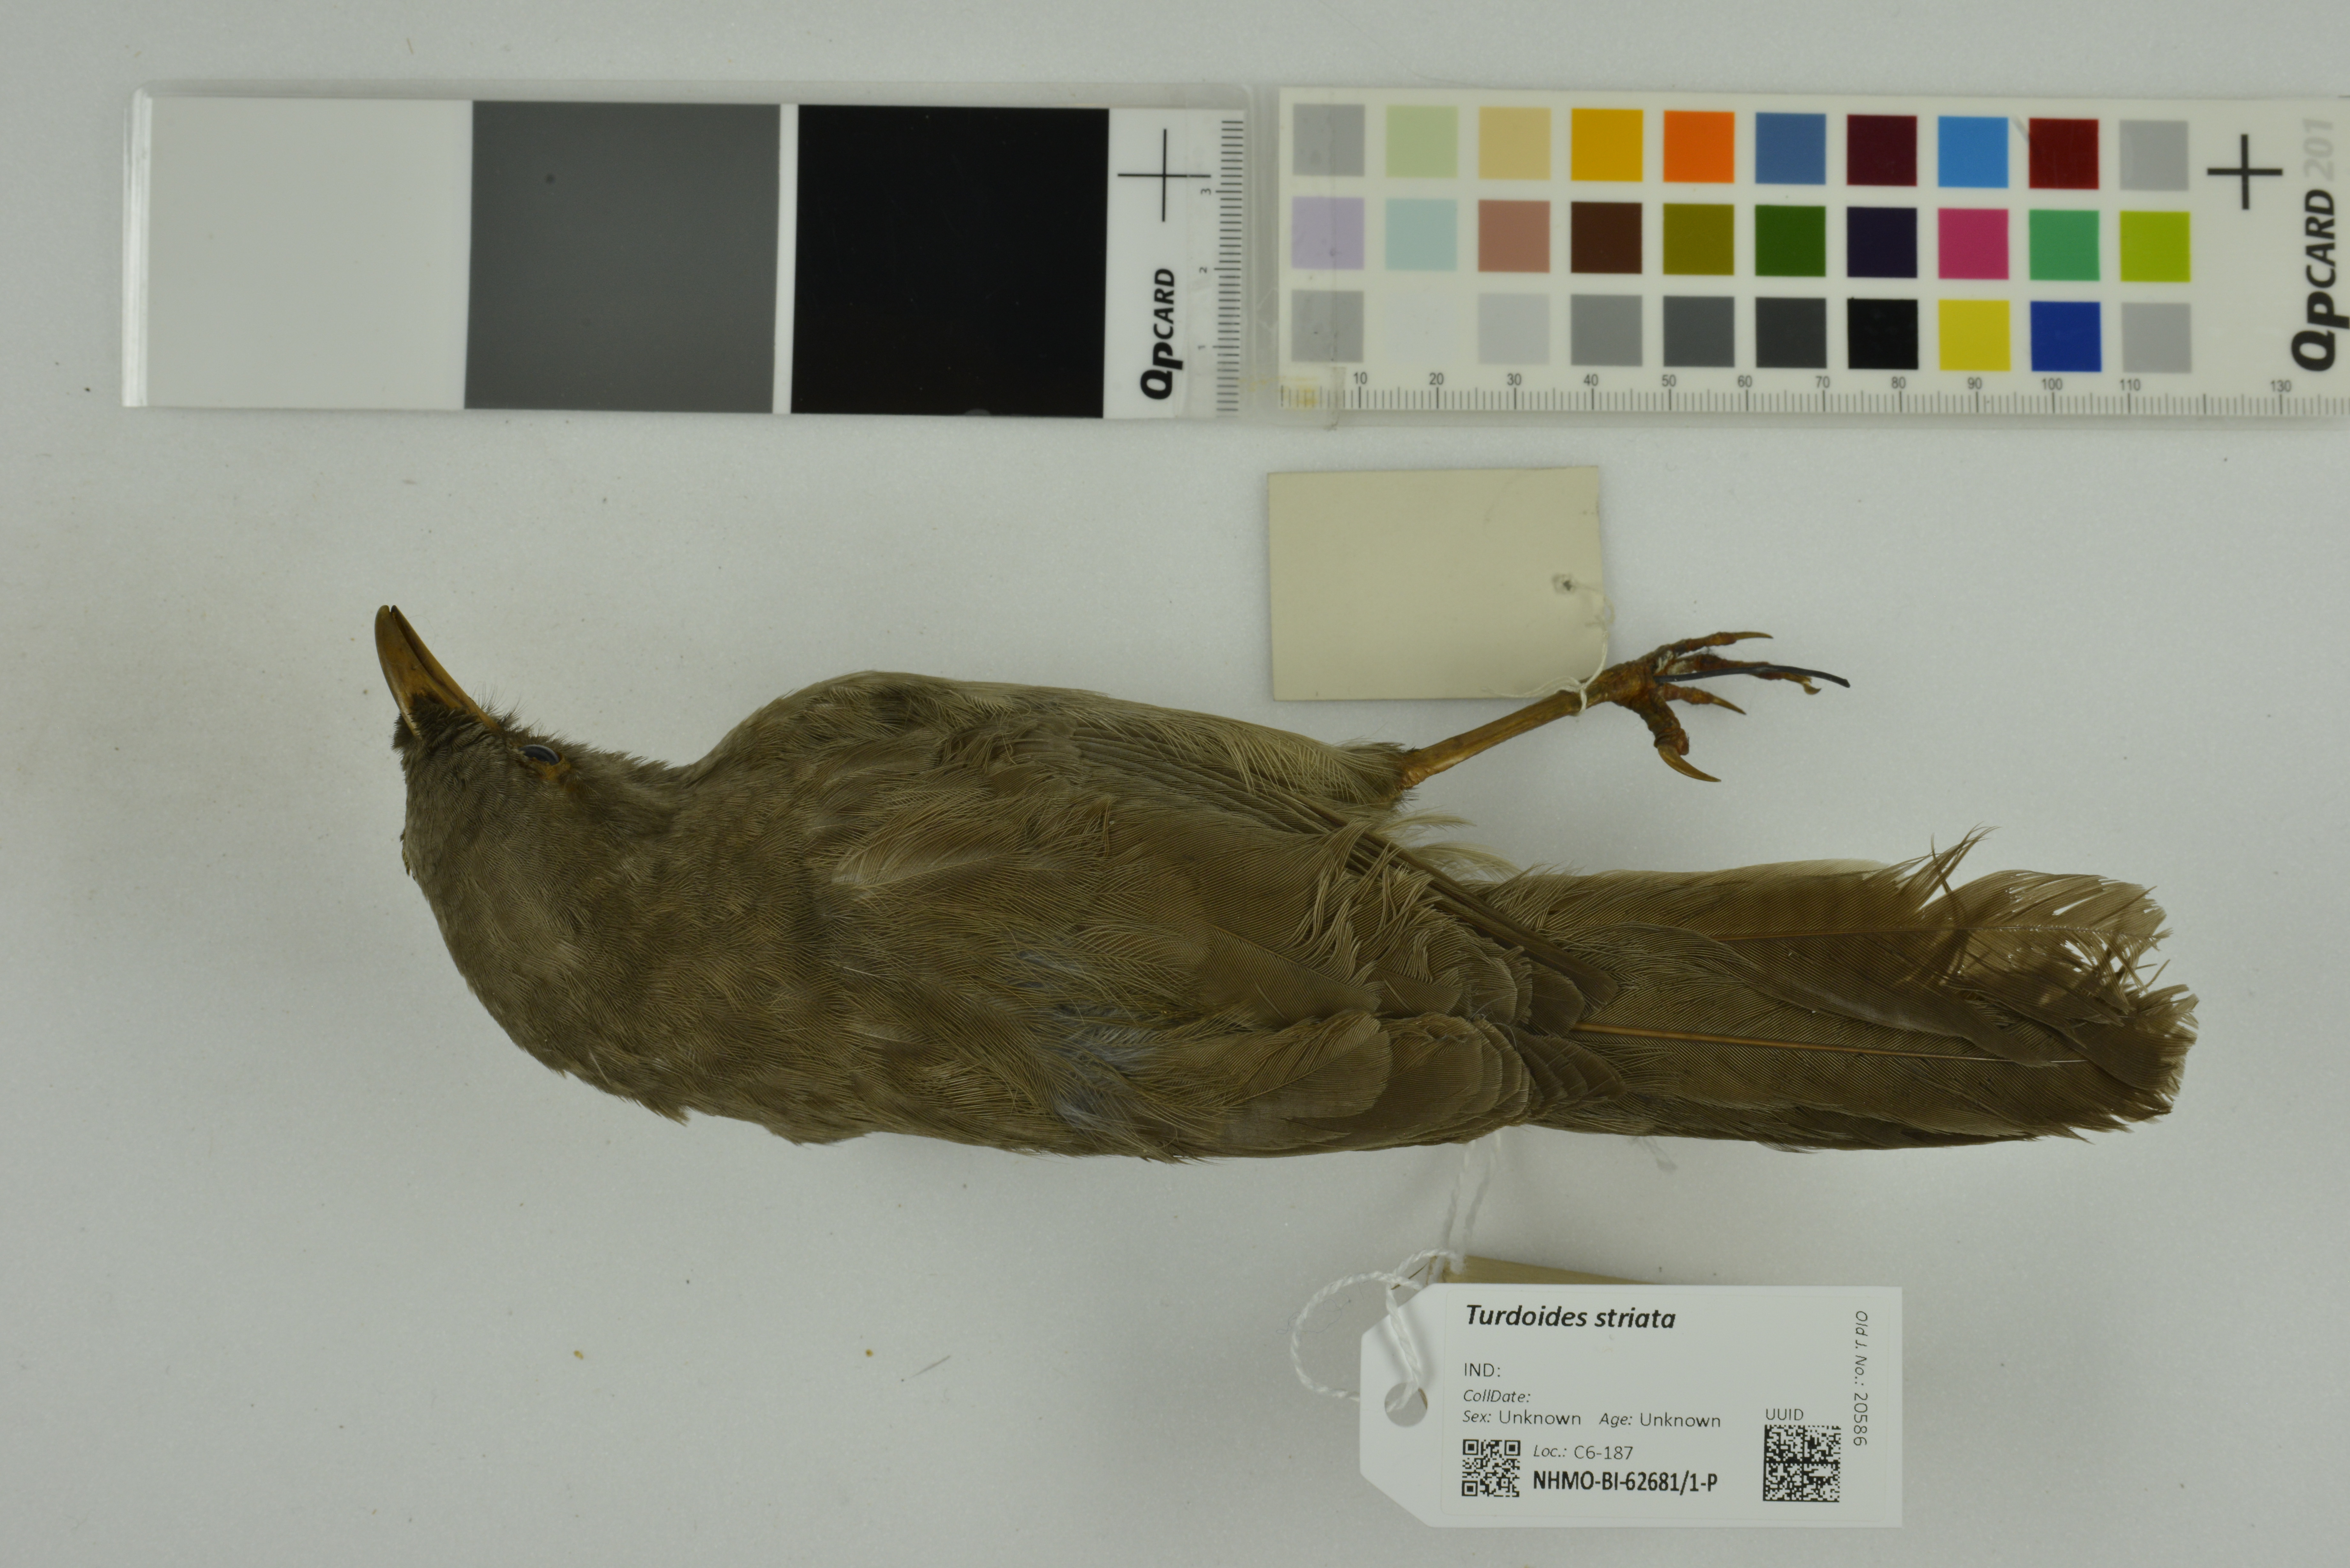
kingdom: Animalia
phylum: Chordata
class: Aves
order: Passeriformes
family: Leiothrichidae
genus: Turdoides
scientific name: Turdoides striata
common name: Jungle babbler
